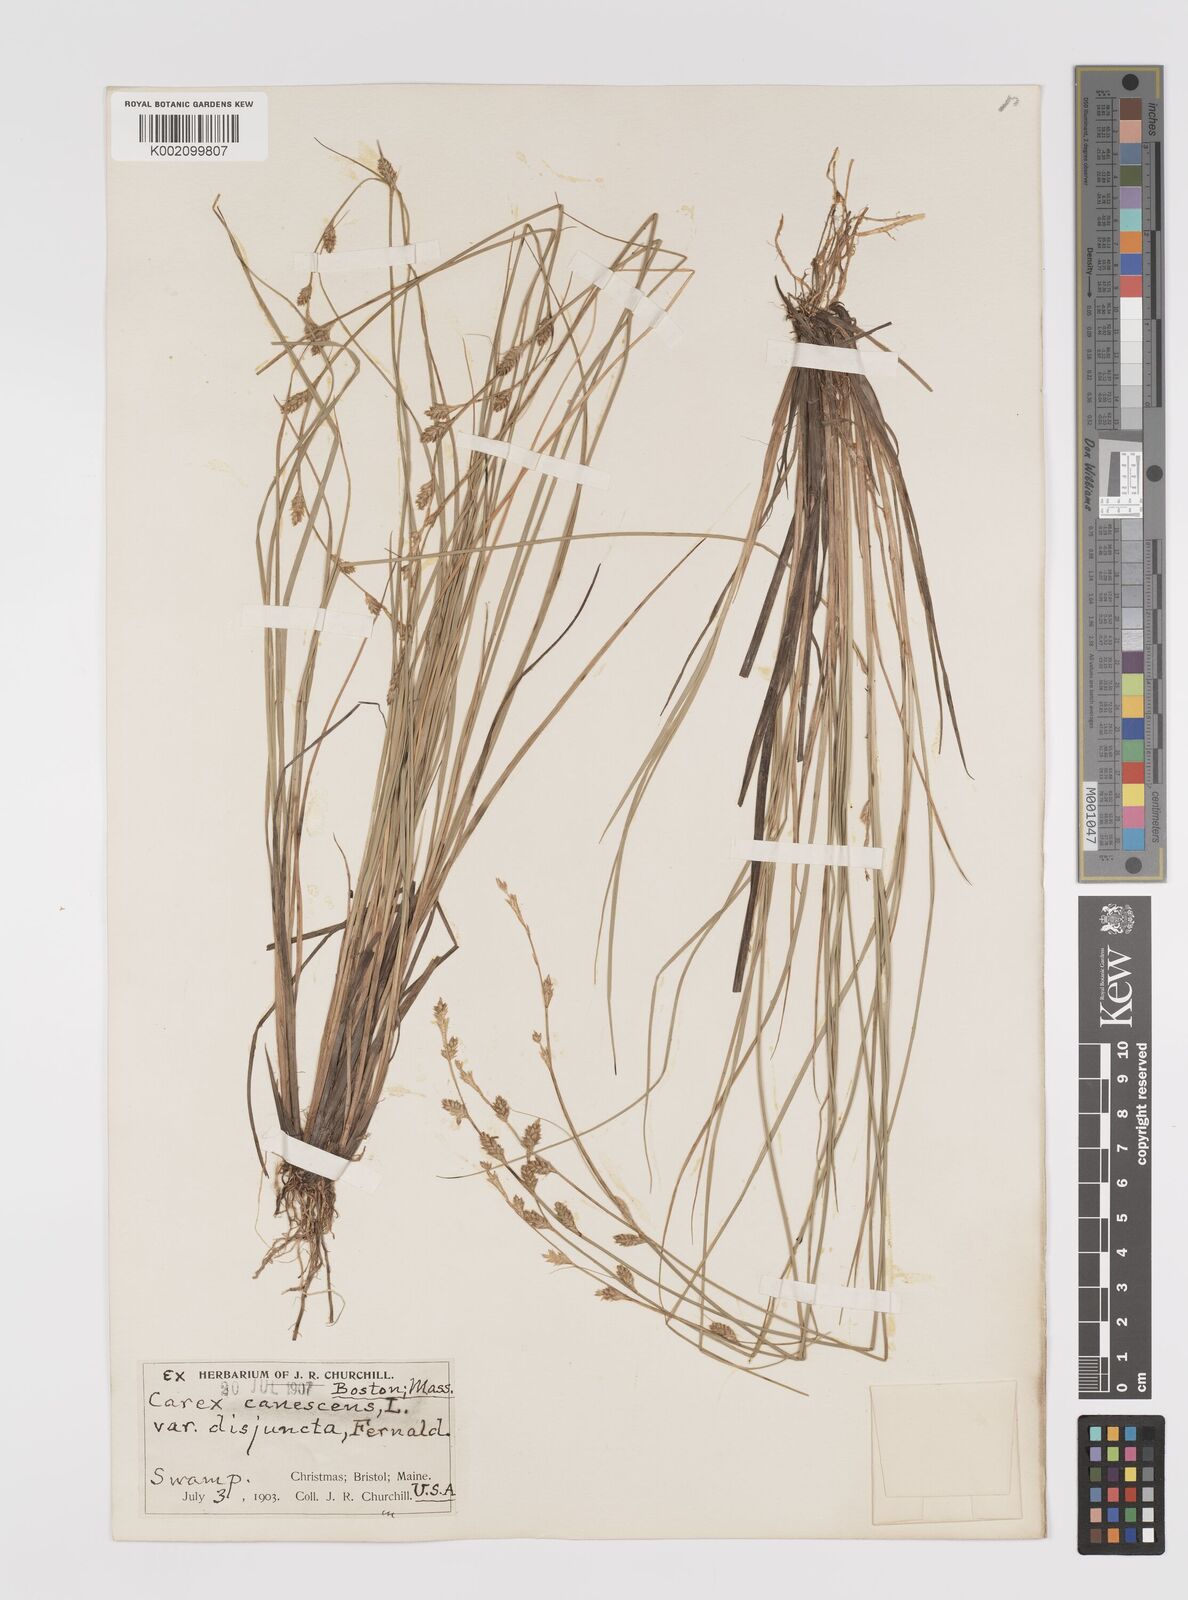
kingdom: Plantae
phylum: Tracheophyta
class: Liliopsida
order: Poales
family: Cyperaceae
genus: Carex
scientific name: Carex curta
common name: White sedge
